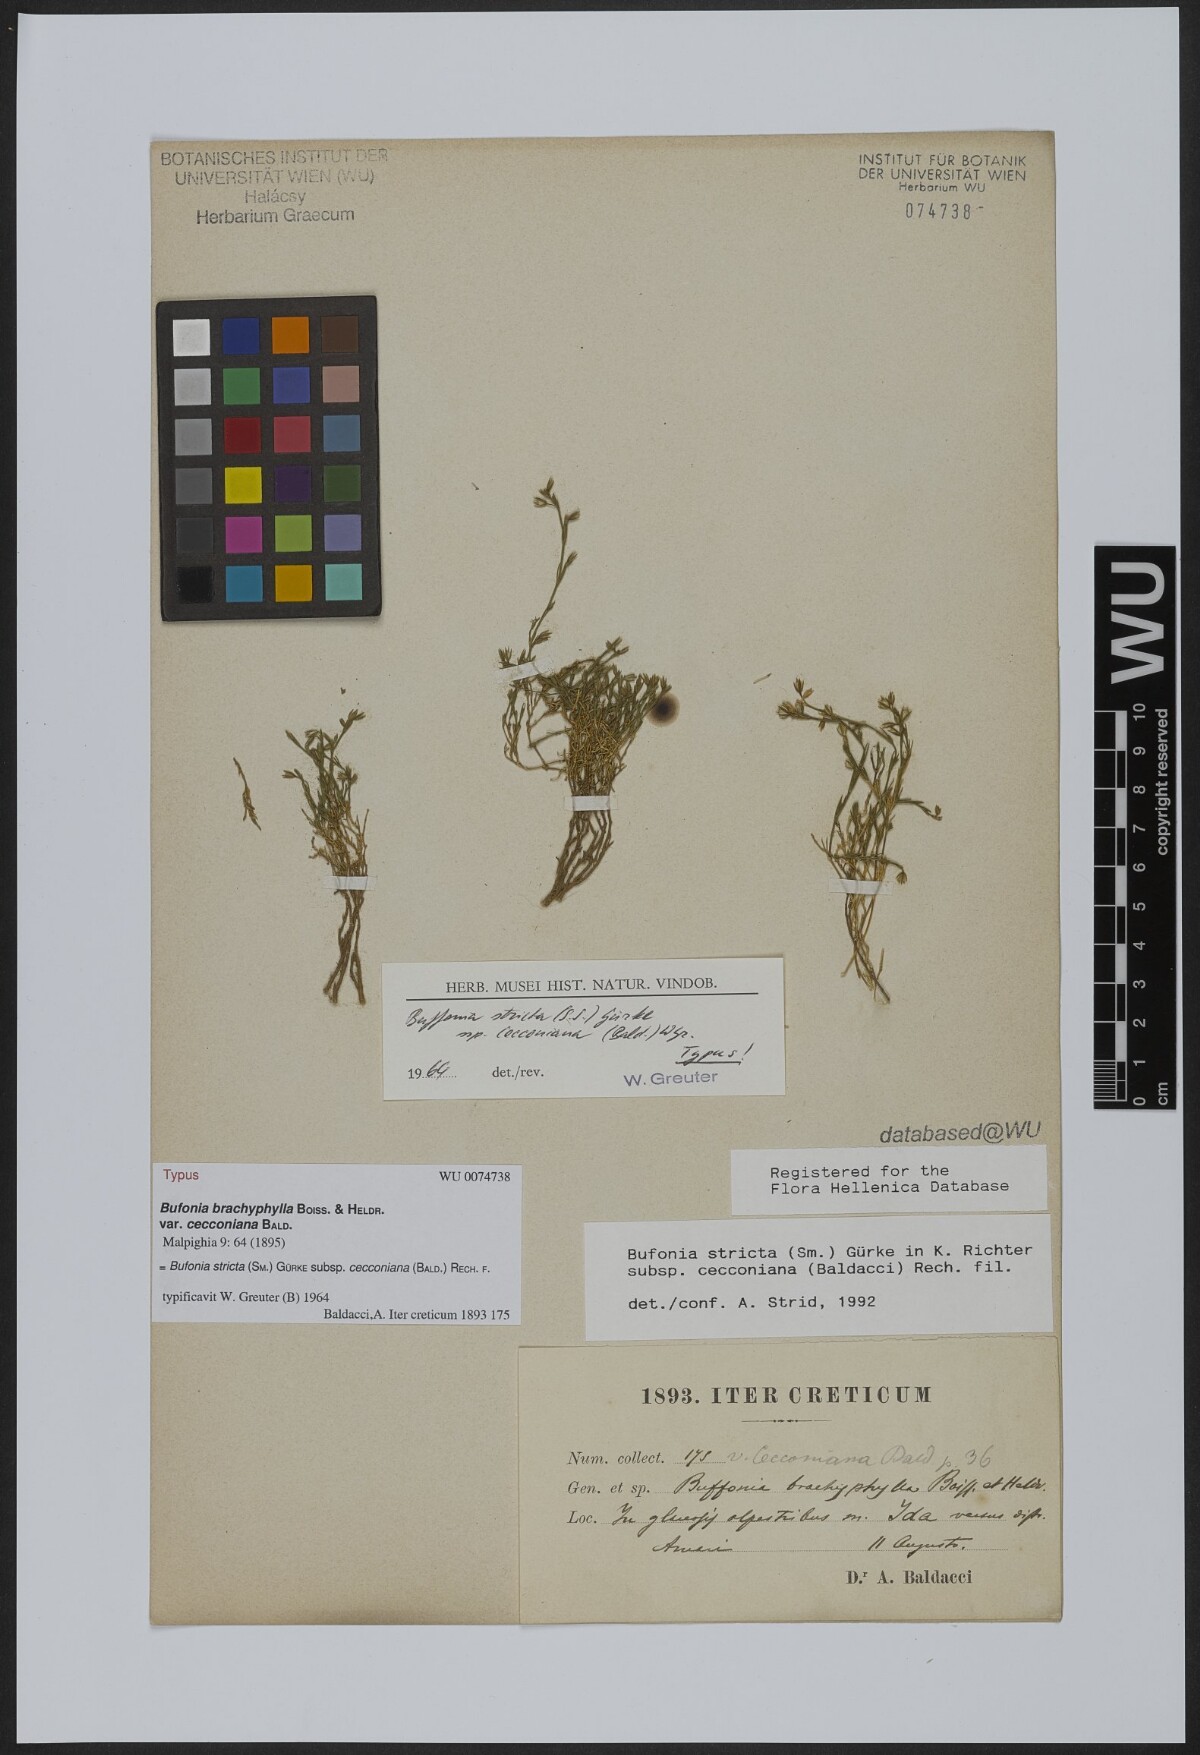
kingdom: Plantae
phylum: Tracheophyta
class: Magnoliopsida
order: Caryophyllales
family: Caryophyllaceae
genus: Bufonia
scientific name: Bufonia stricta
